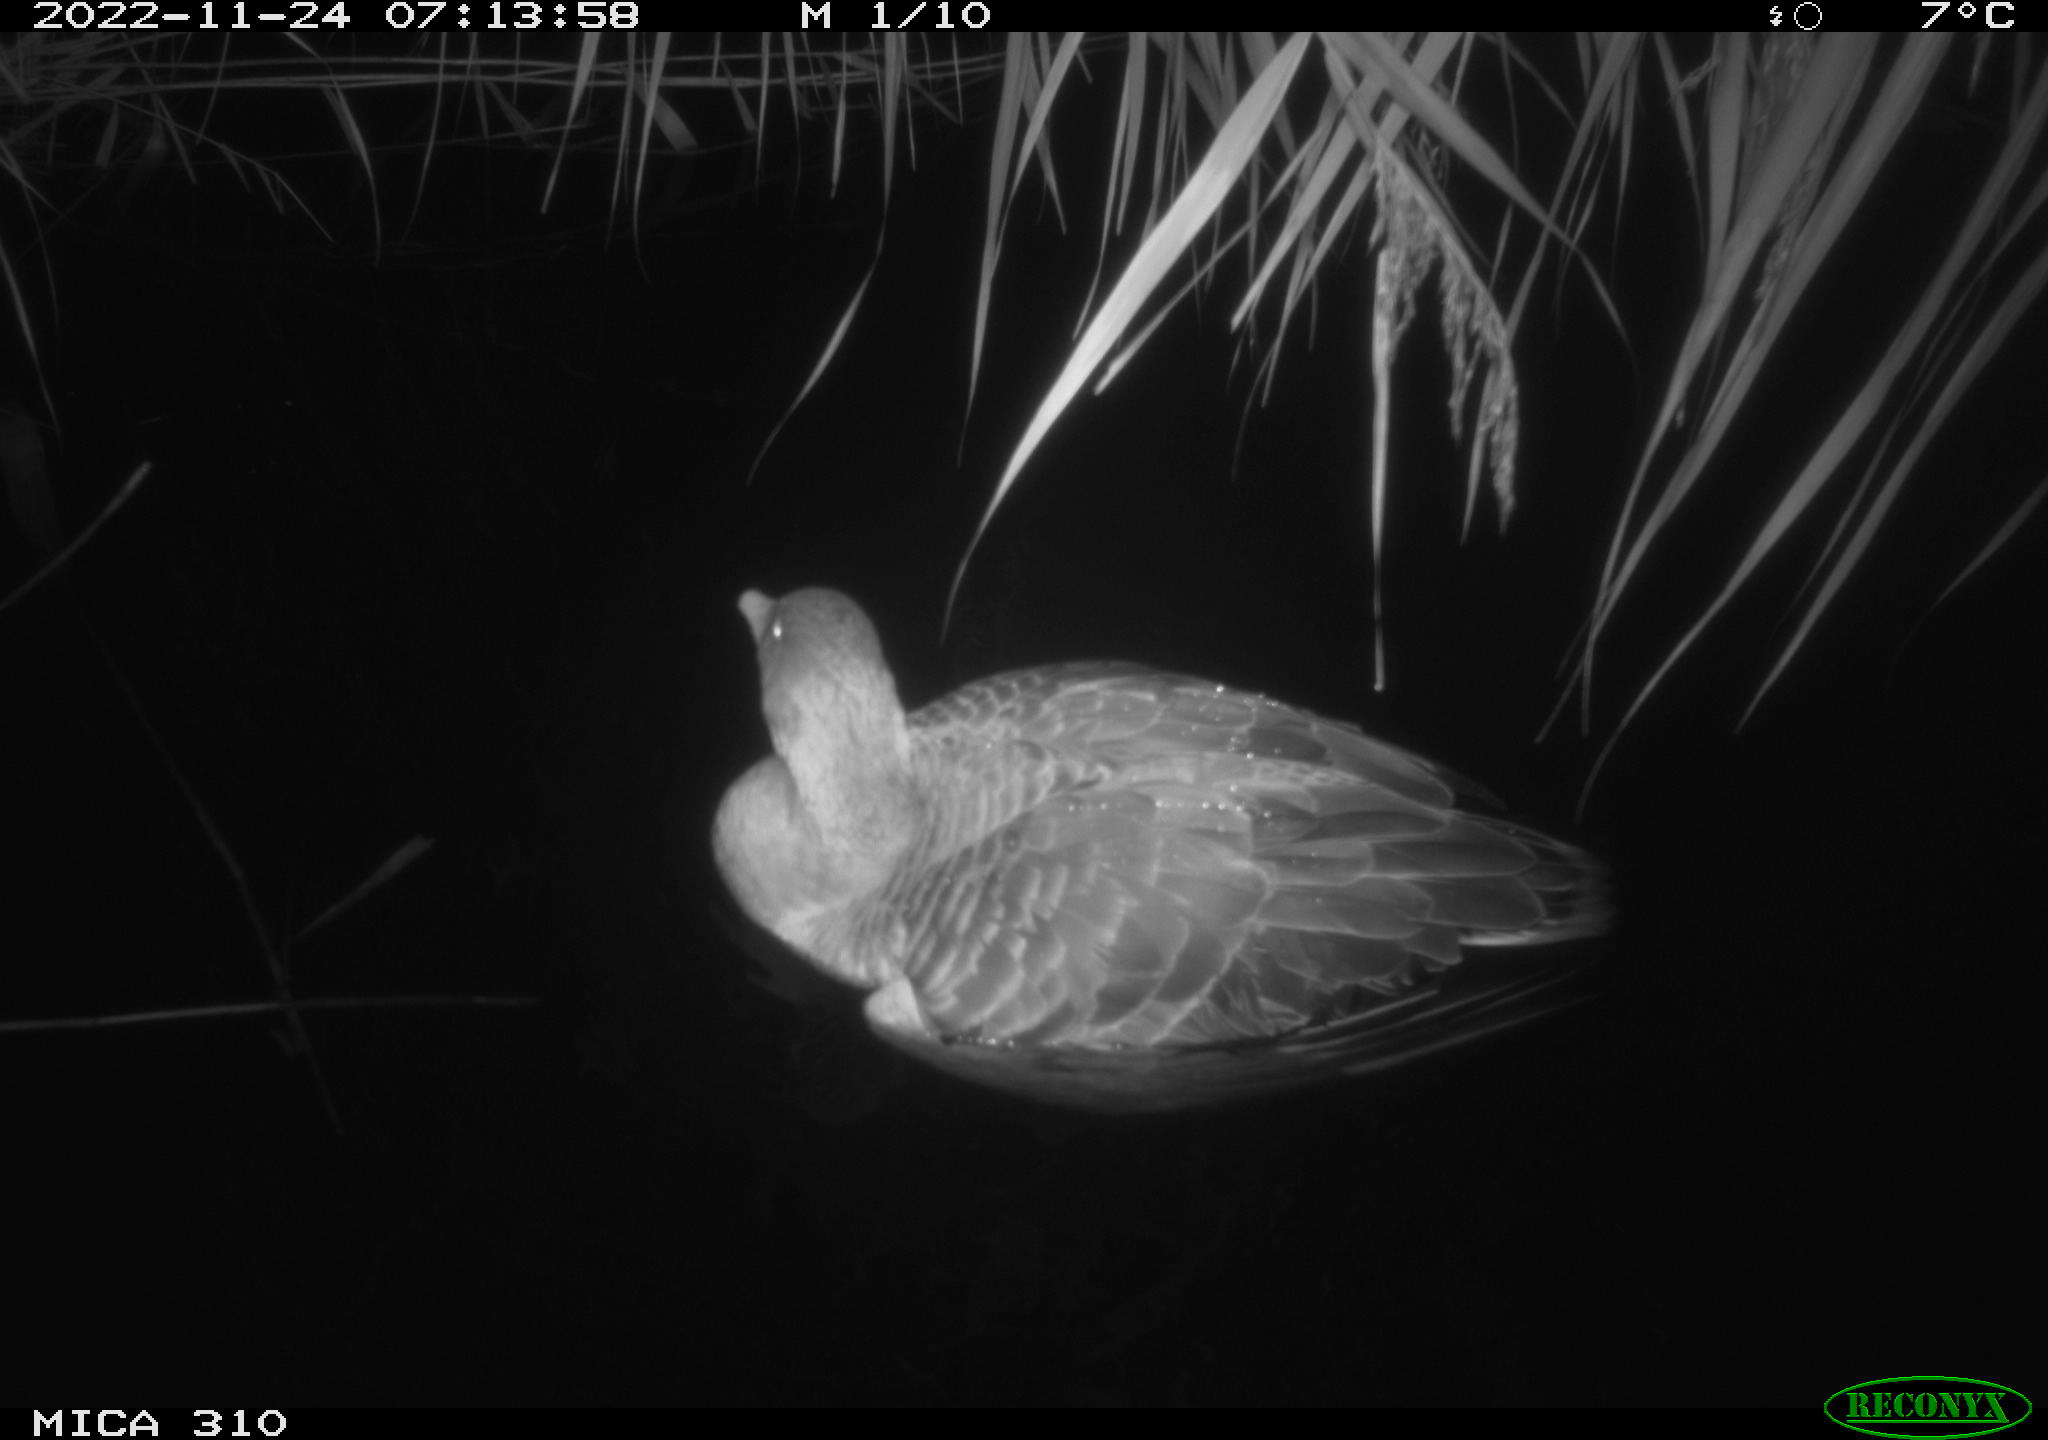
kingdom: Animalia
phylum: Chordata
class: Aves
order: Anseriformes
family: Anatidae
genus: Anser
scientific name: Anser anser
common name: Greylag goose
